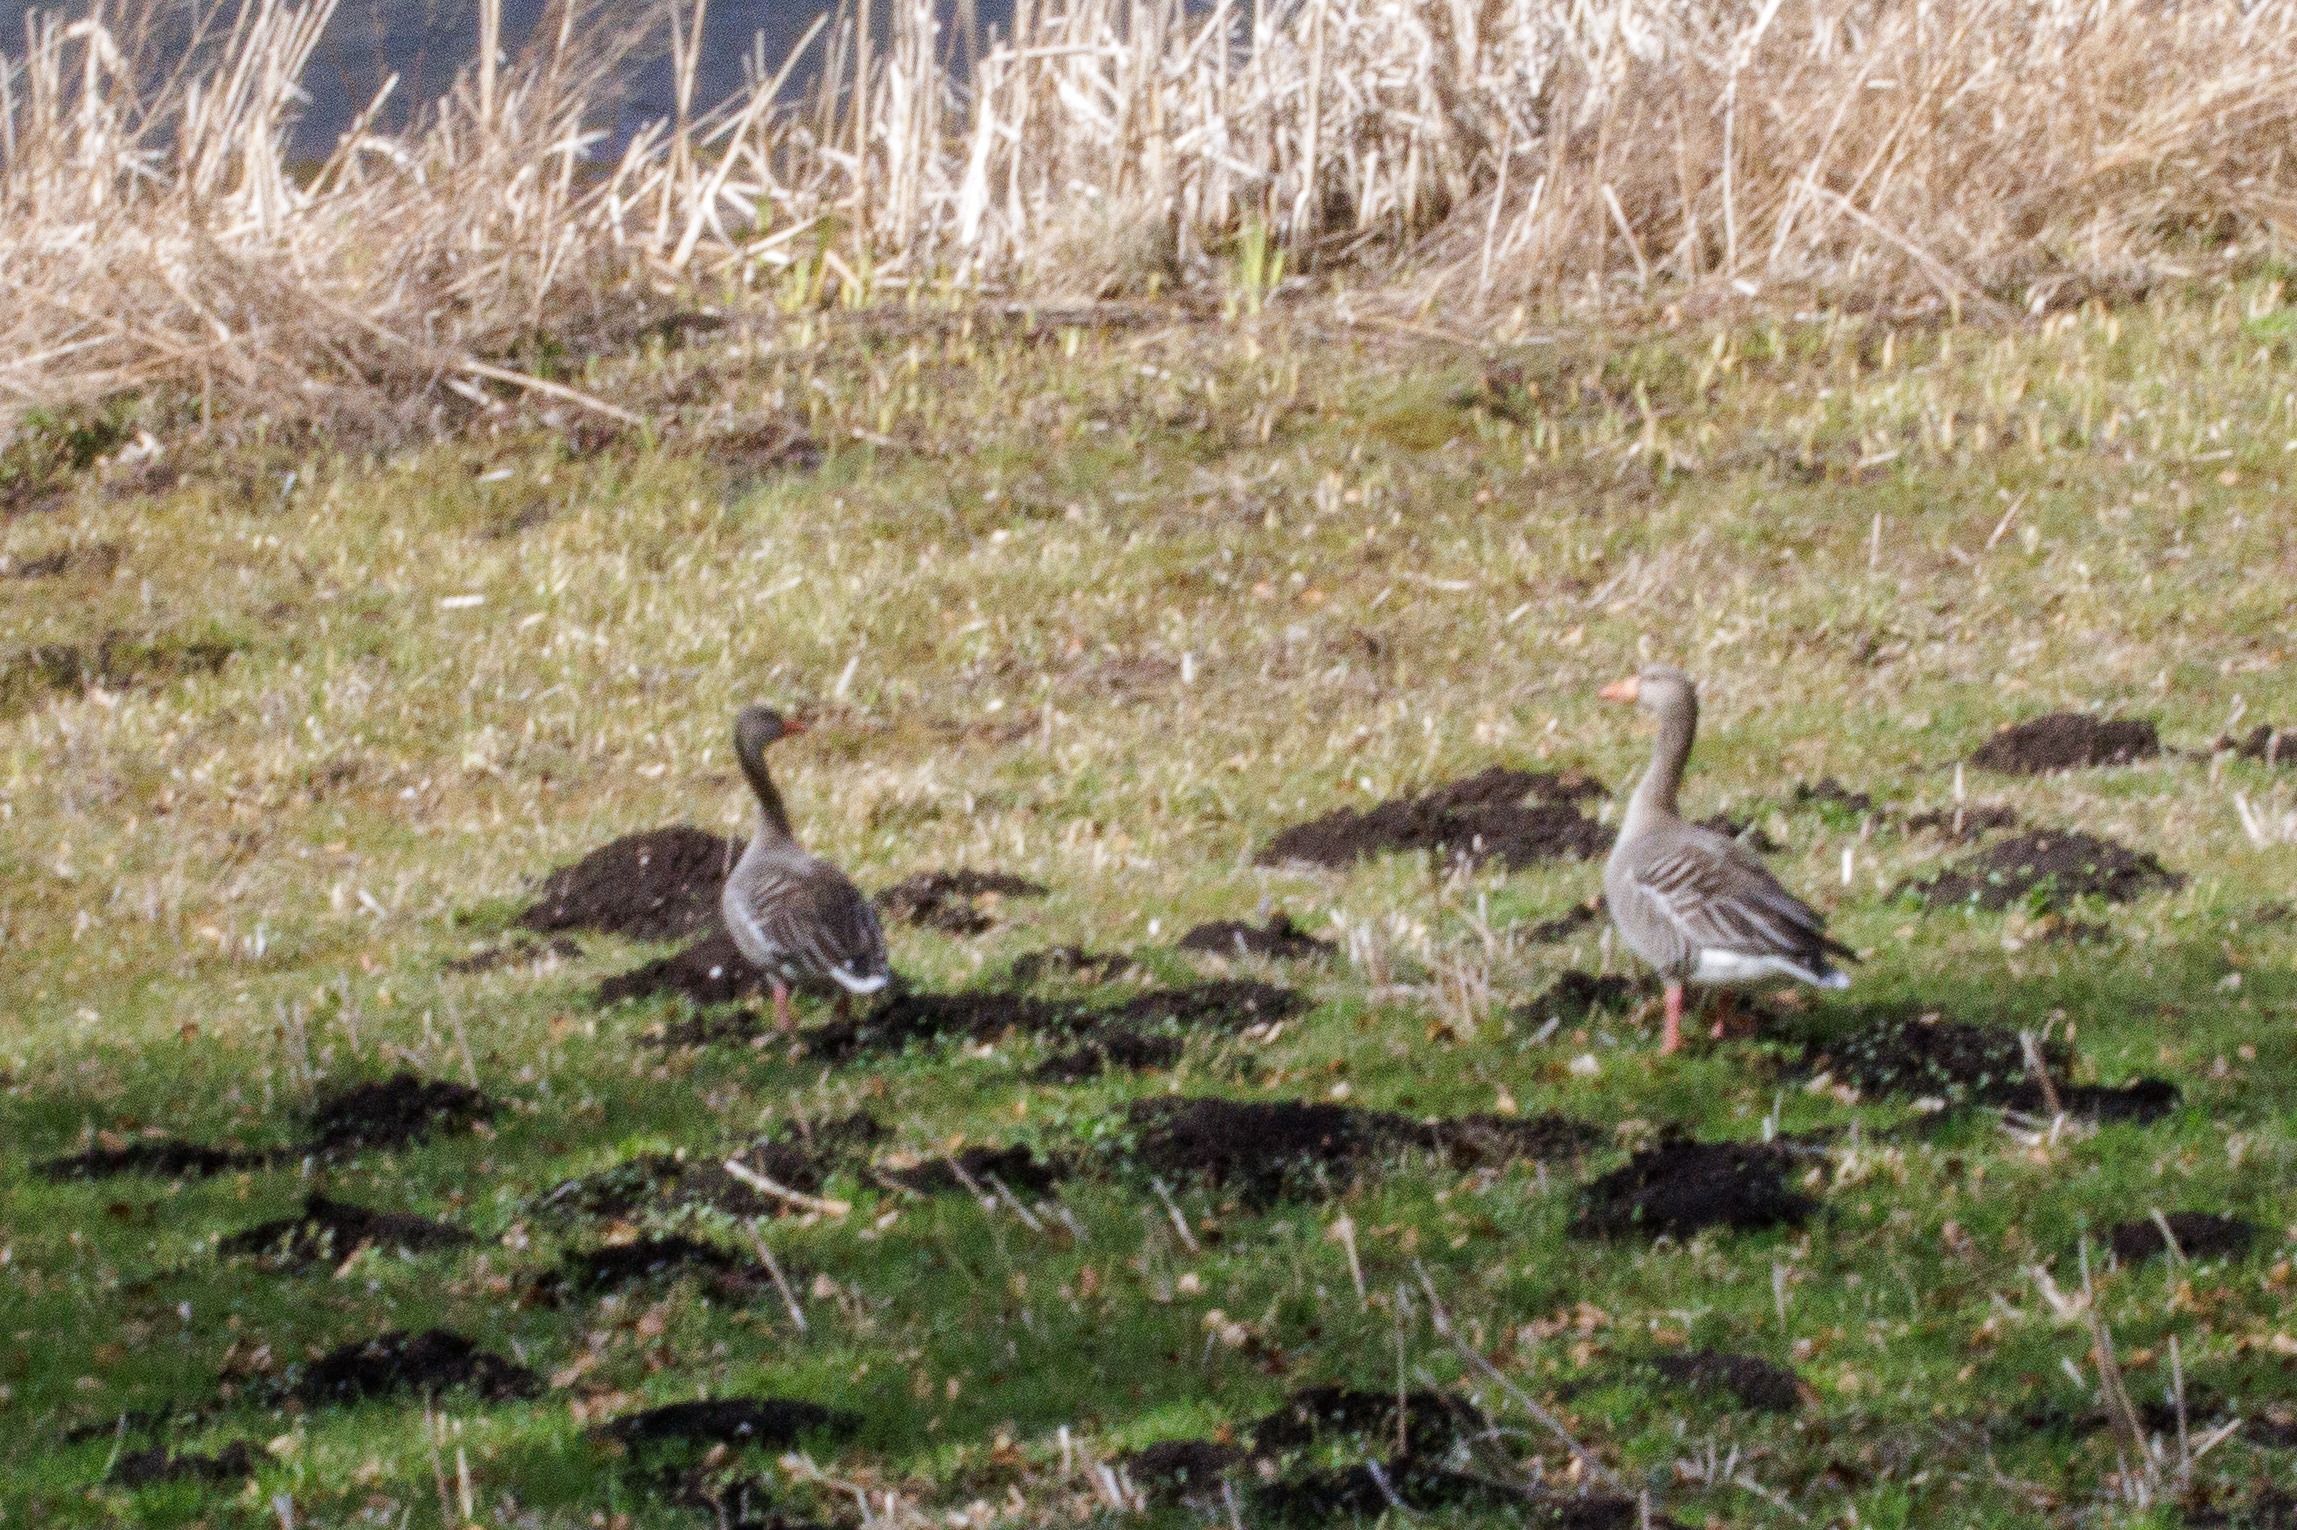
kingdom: Animalia
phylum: Chordata
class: Aves
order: Anseriformes
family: Anatidae
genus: Anser
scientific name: Anser anser
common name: Grågås
